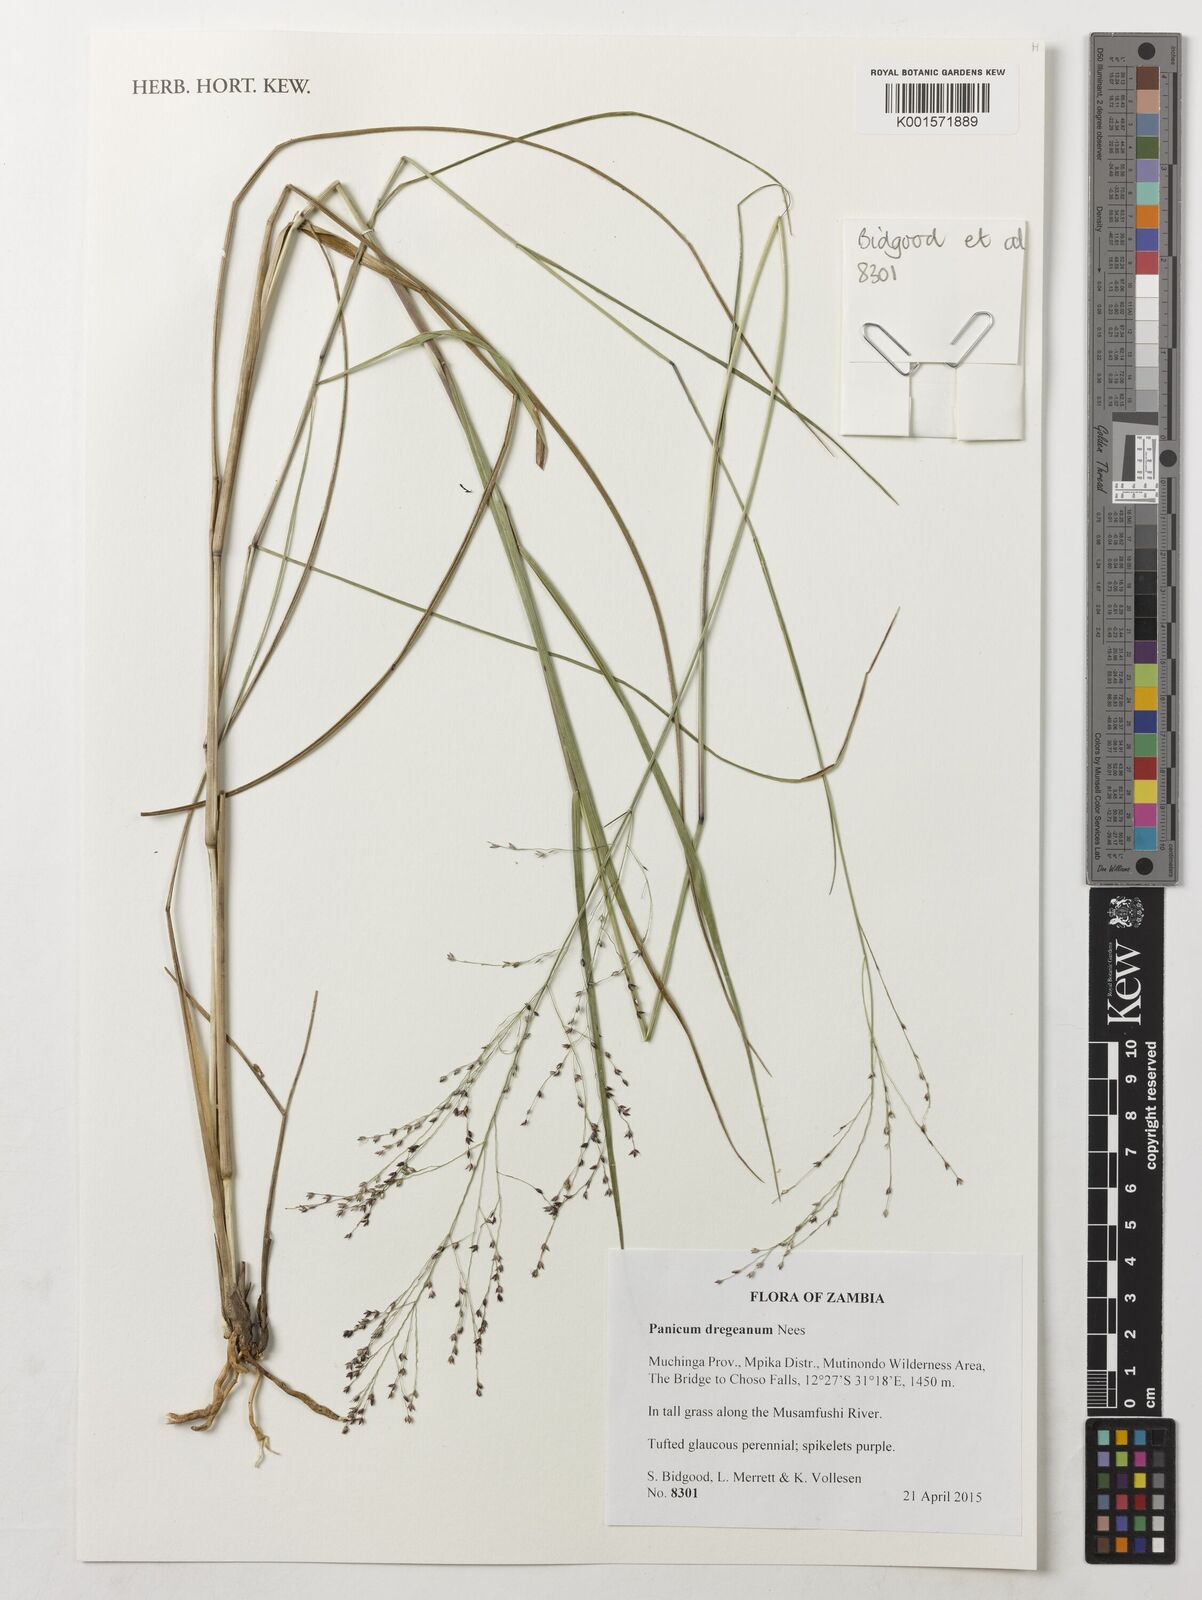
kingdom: Plantae
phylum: Tracheophyta
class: Liliopsida
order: Poales
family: Poaceae
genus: Panicum
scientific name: Panicum dregeanum
